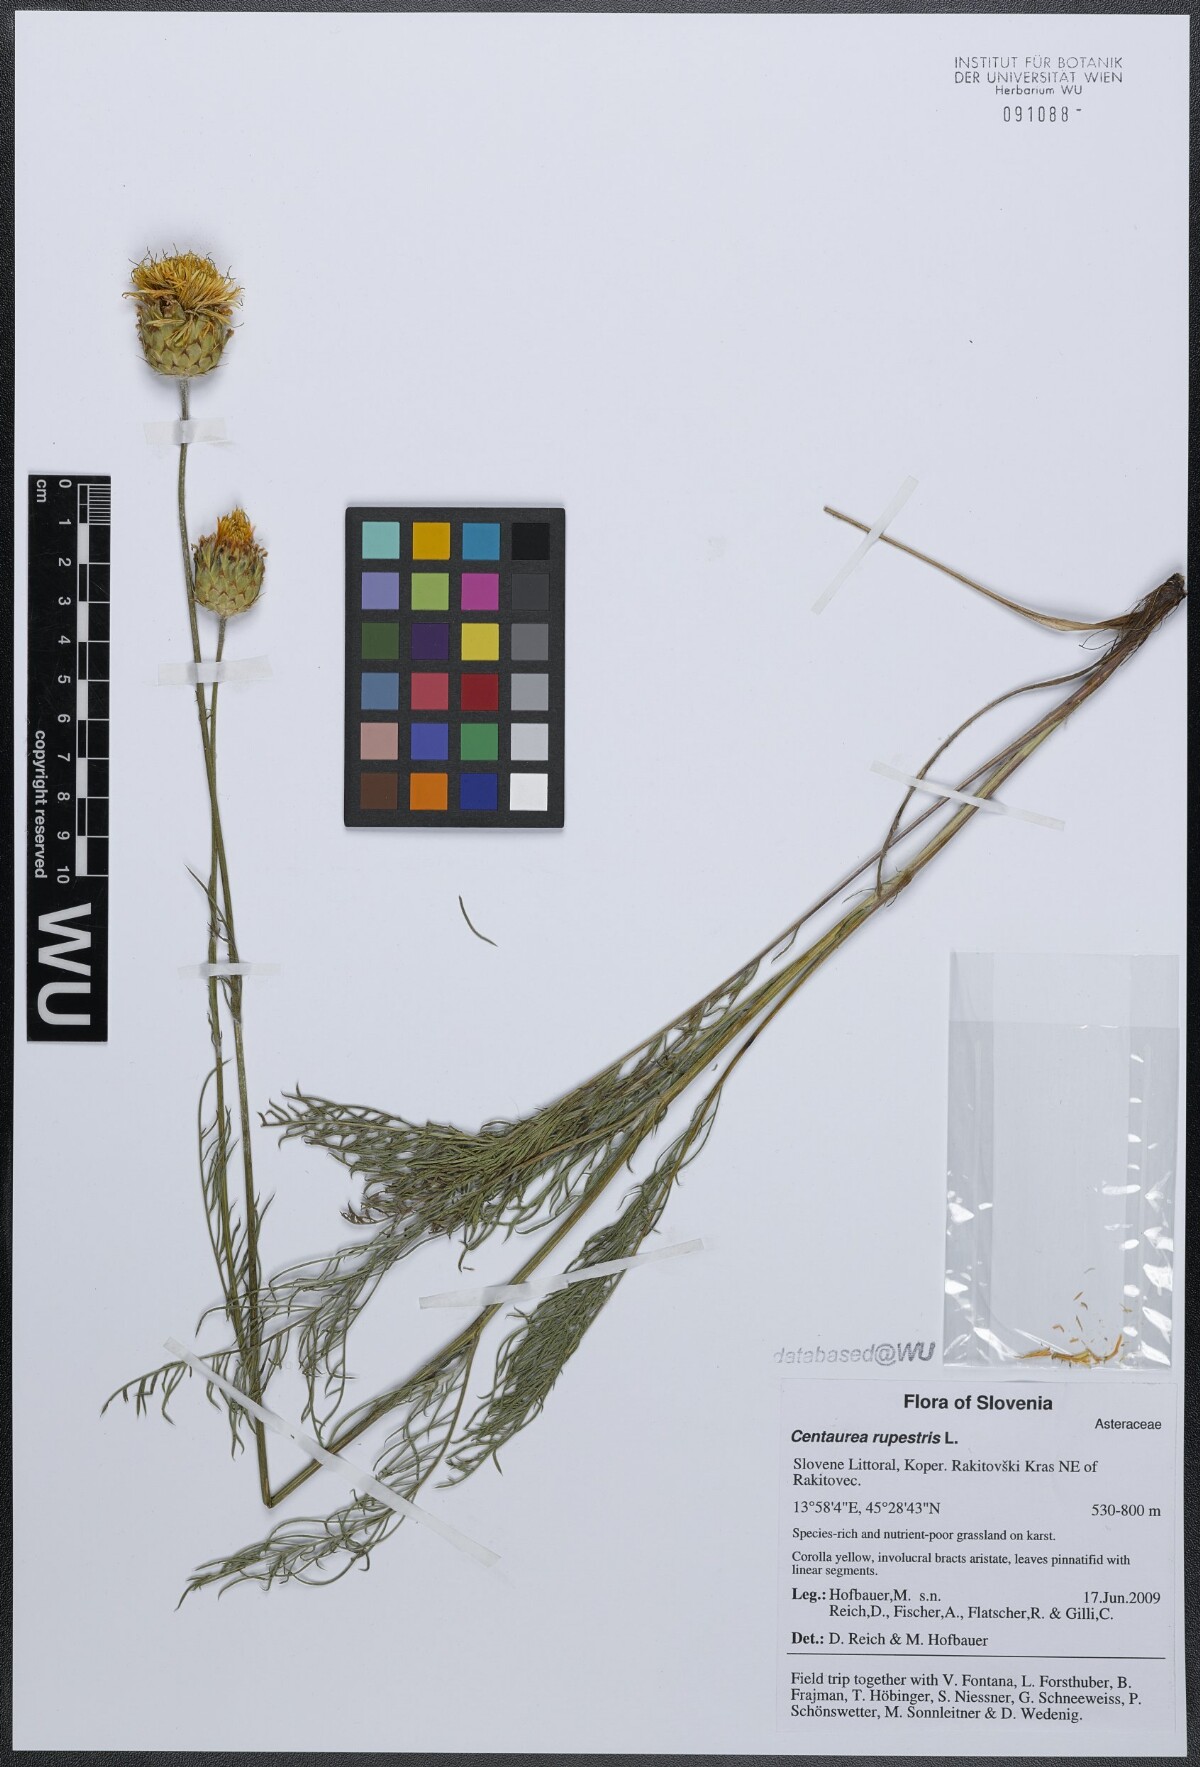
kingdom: Plantae
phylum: Tracheophyta
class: Magnoliopsida
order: Asterales
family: Asteraceae
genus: Centaurea
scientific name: Centaurea rupestris
